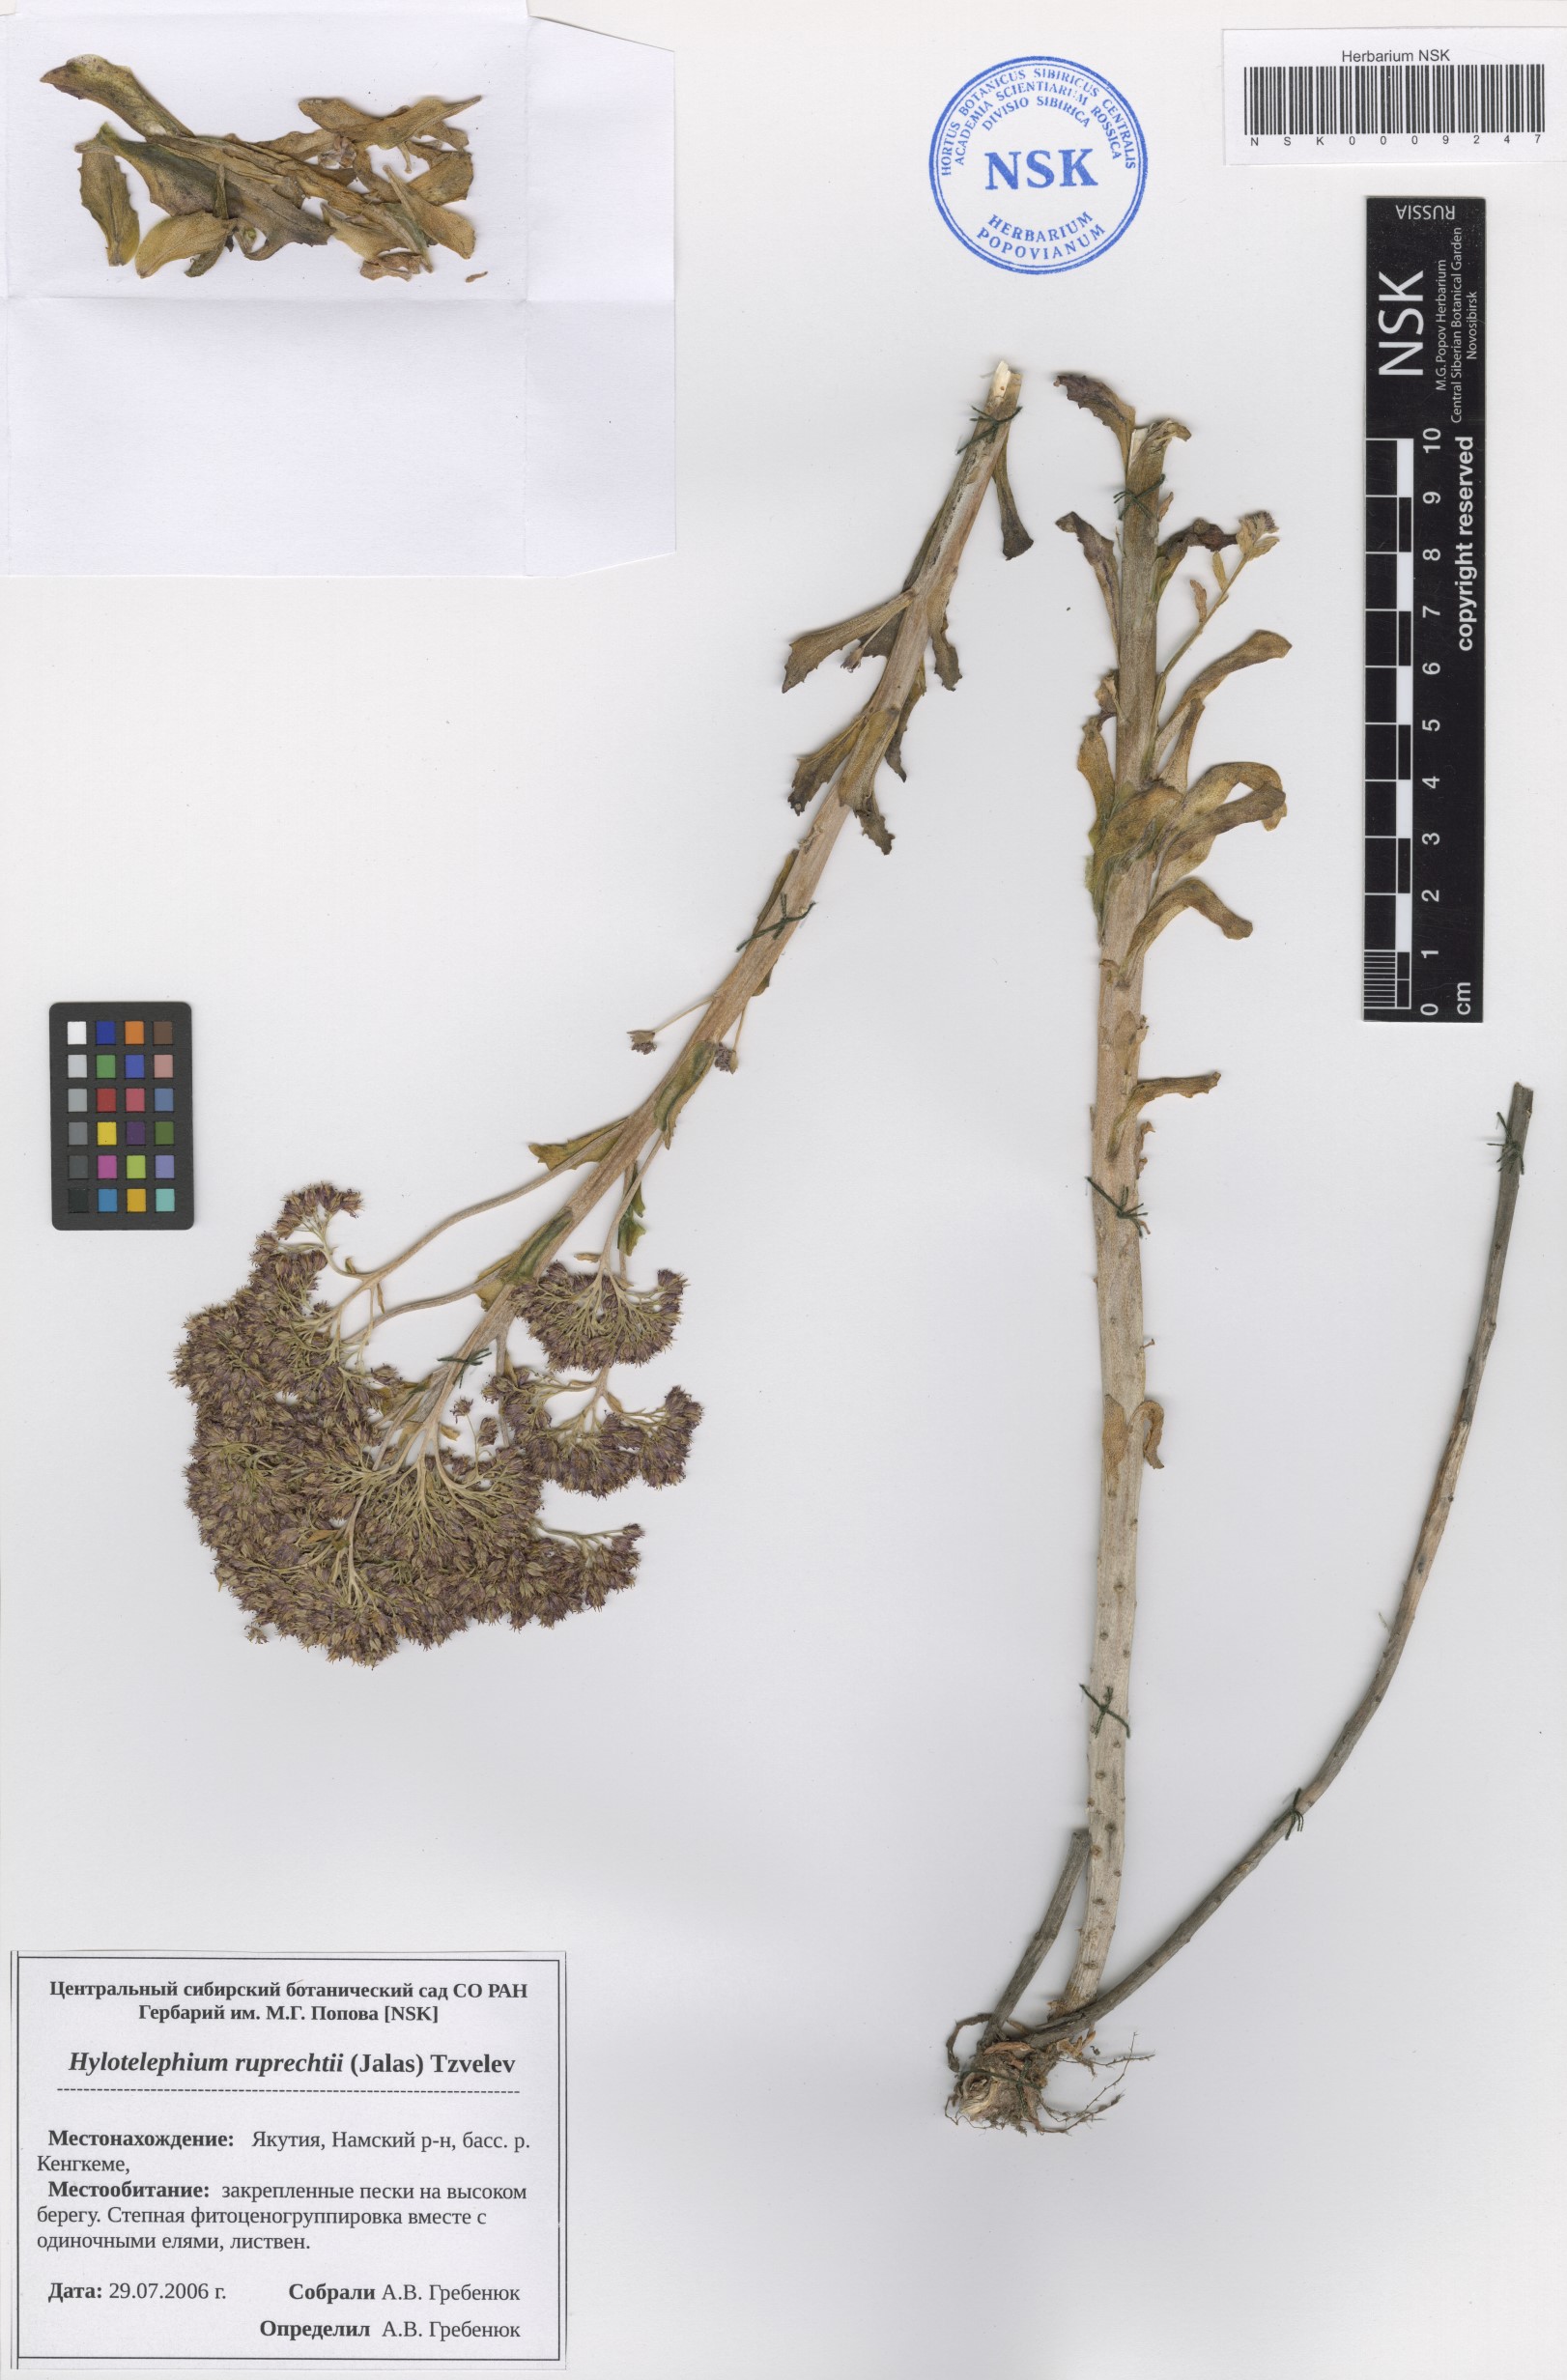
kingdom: Plantae
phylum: Tracheophyta
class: Magnoliopsida
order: Saxifragales
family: Crassulaceae
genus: Hylotelephium
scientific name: Hylotelephium maximum
